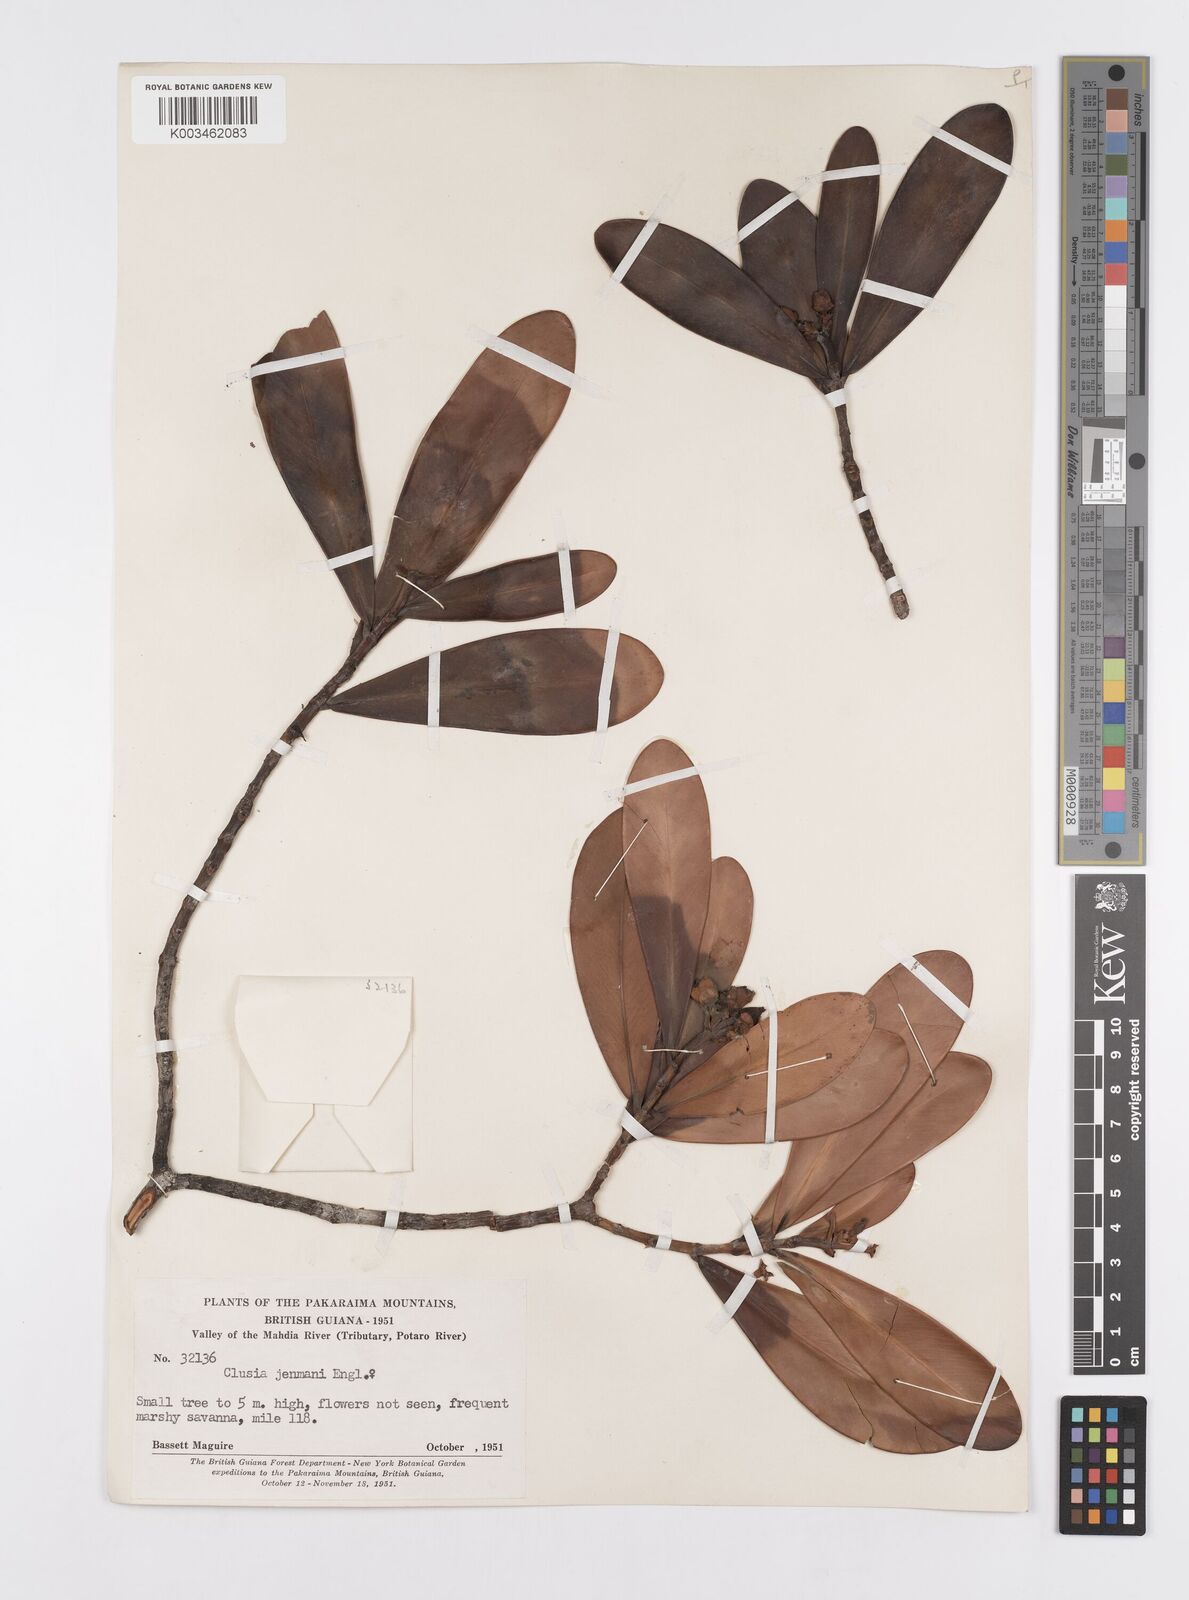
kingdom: Plantae
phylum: Tracheophyta
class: Magnoliopsida
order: Malpighiales
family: Clusiaceae
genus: Clusia
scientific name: Clusia myriandra
